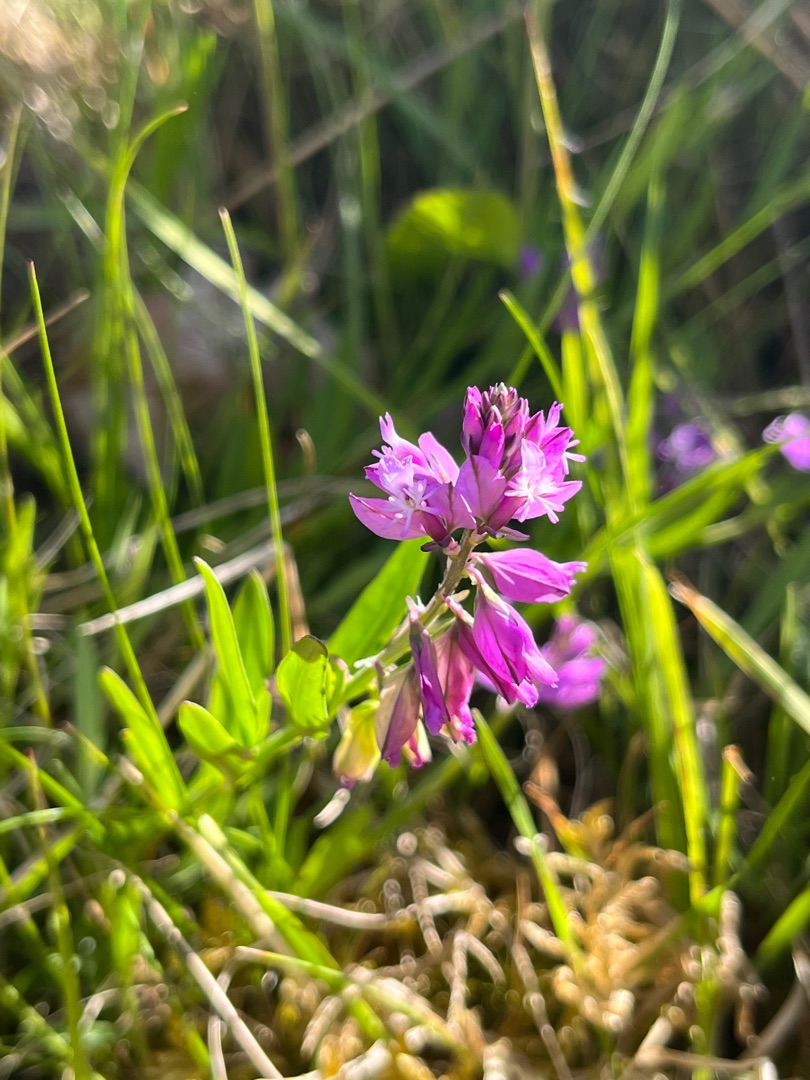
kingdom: Plantae
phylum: Tracheophyta
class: Magnoliopsida
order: Fabales
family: Polygalaceae
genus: Polygala
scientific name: Polygala vulgaris
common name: Almindelig mælkeurt
